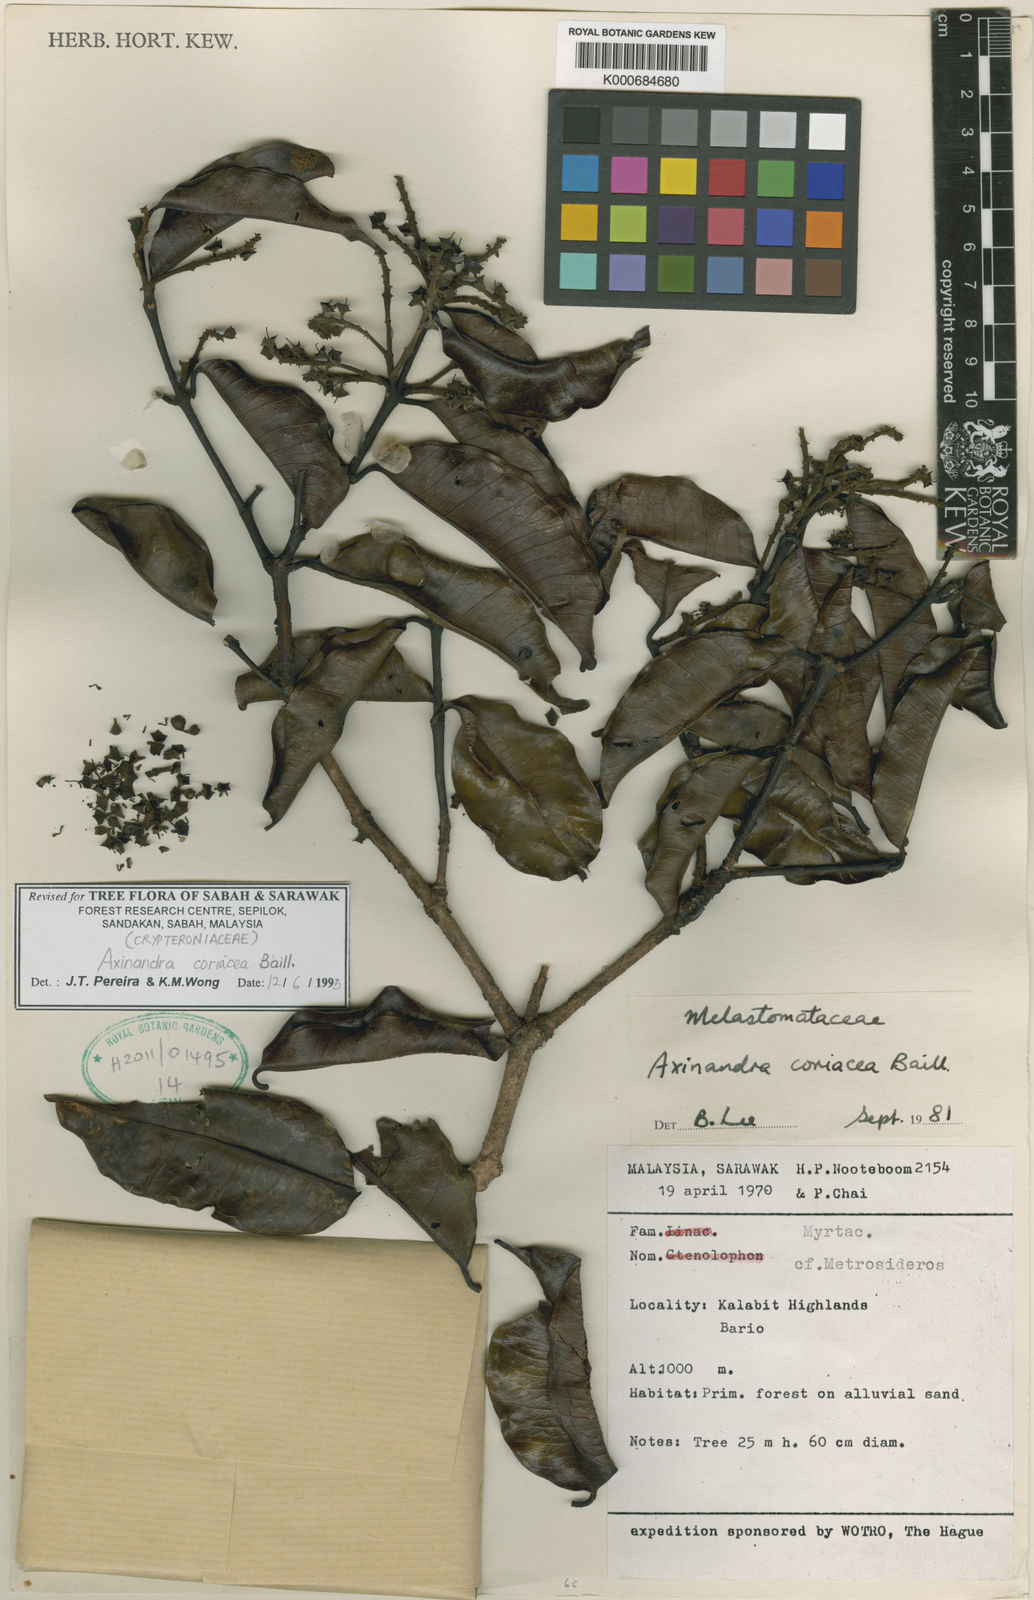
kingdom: Plantae
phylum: Tracheophyta
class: Magnoliopsida
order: Myrtales
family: Crypteroniaceae
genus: Axinandra
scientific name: Axinandra coriacea
